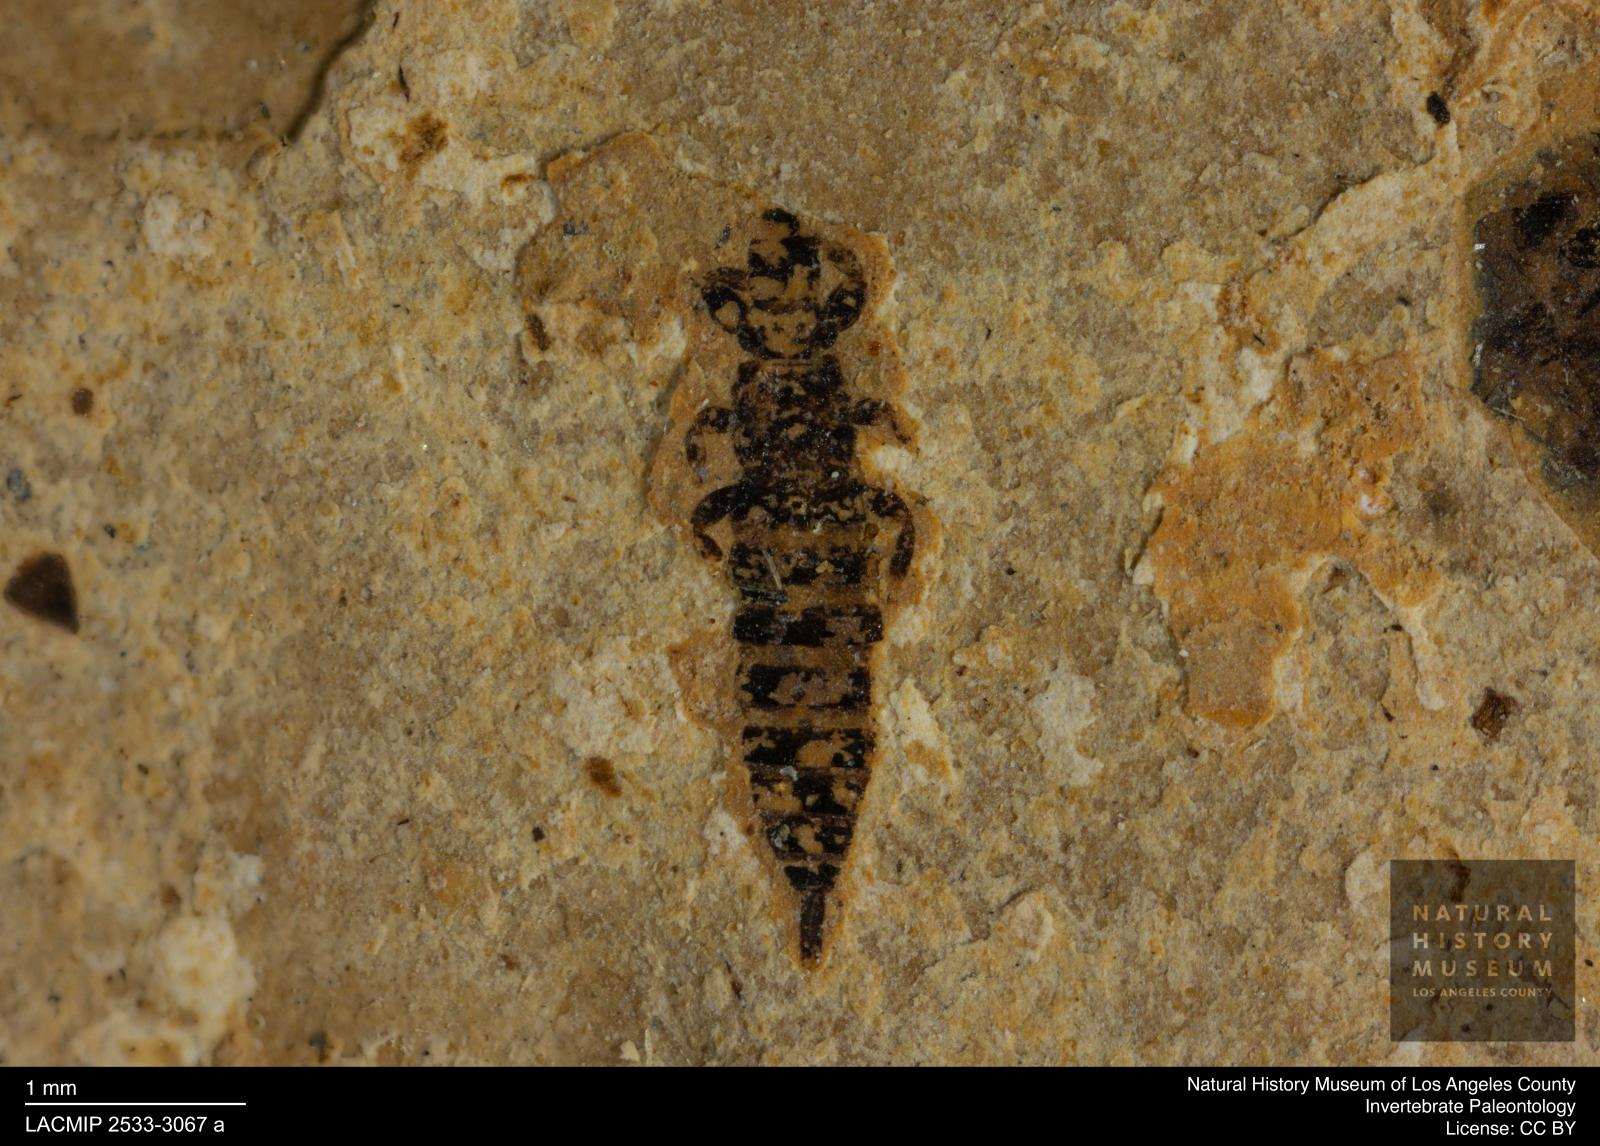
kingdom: Animalia
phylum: Arthropoda
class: Insecta
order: Thysanoptera
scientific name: Thysanoptera
